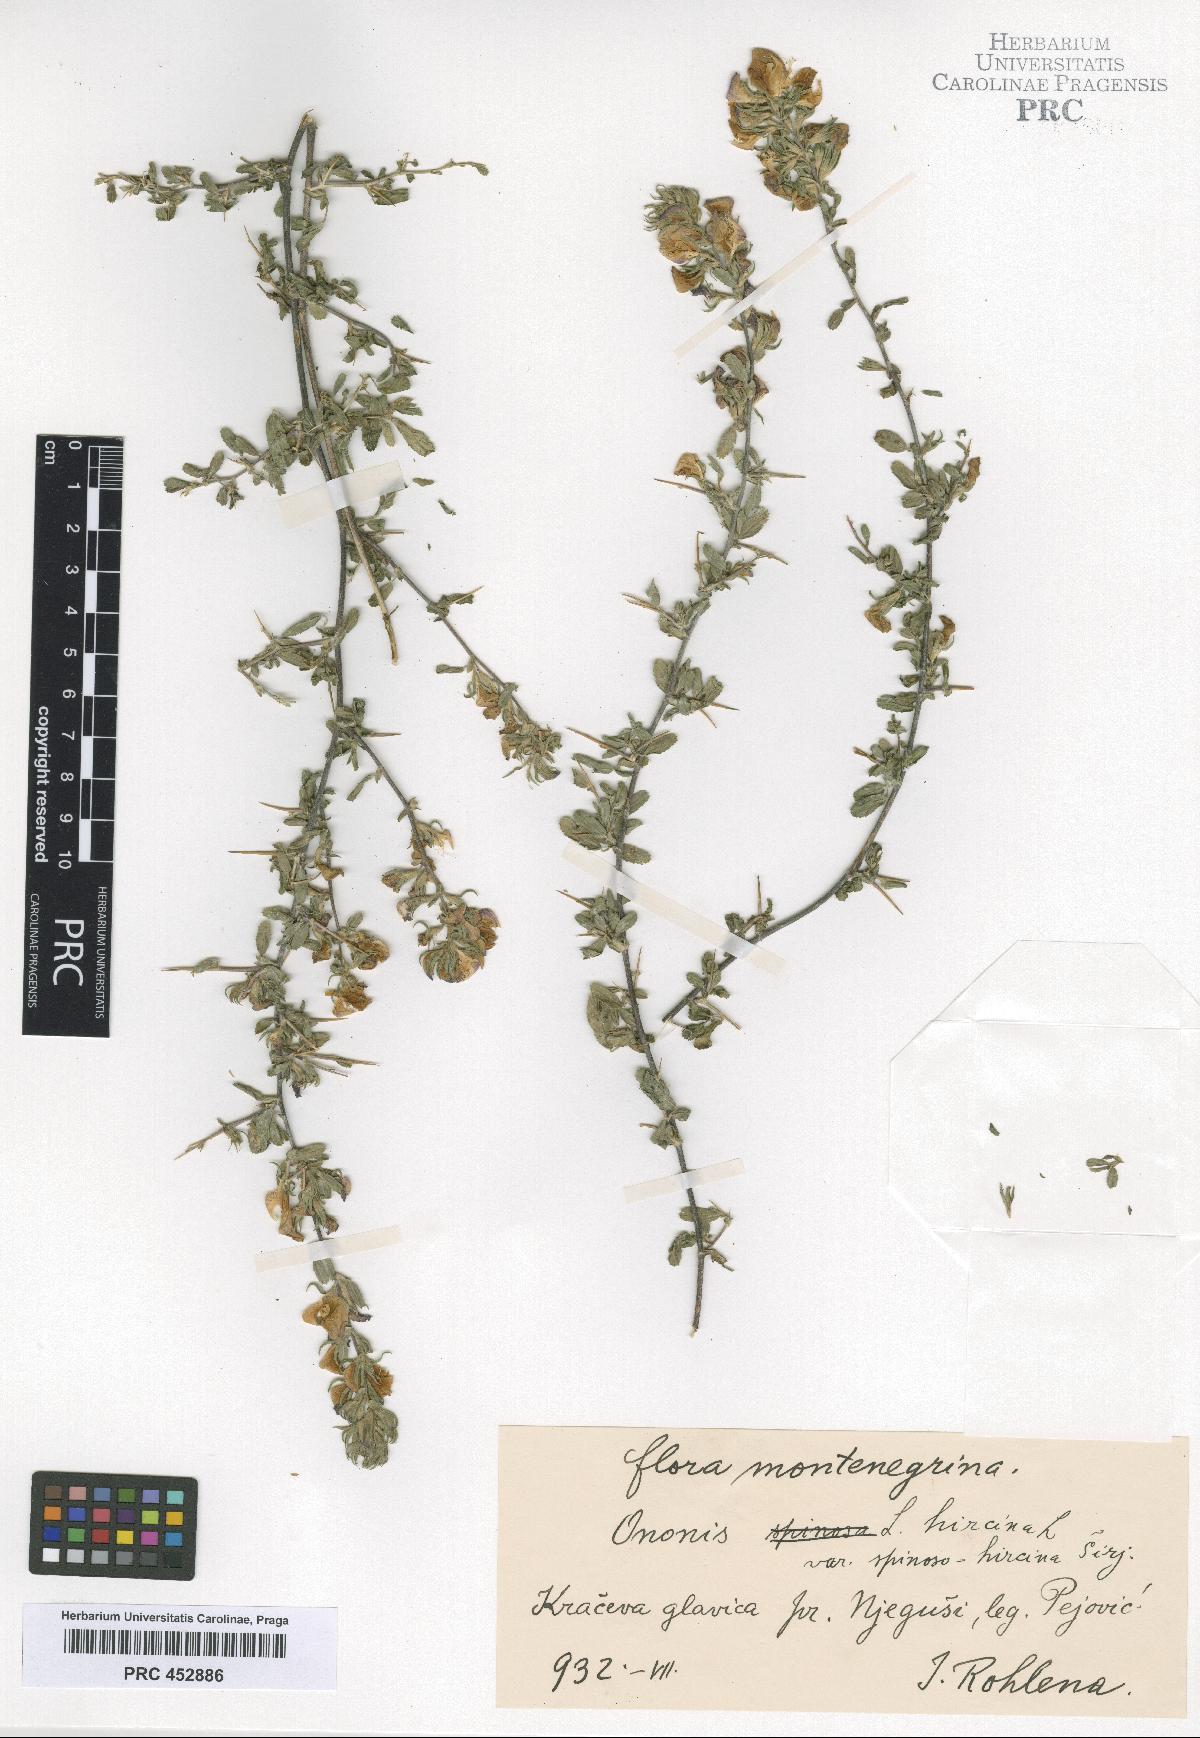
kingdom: Plantae
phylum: Tracheophyta
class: Magnoliopsida
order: Fabales
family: Fabaceae
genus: Ononis
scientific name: Ononis arvensis
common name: Field restharrow
